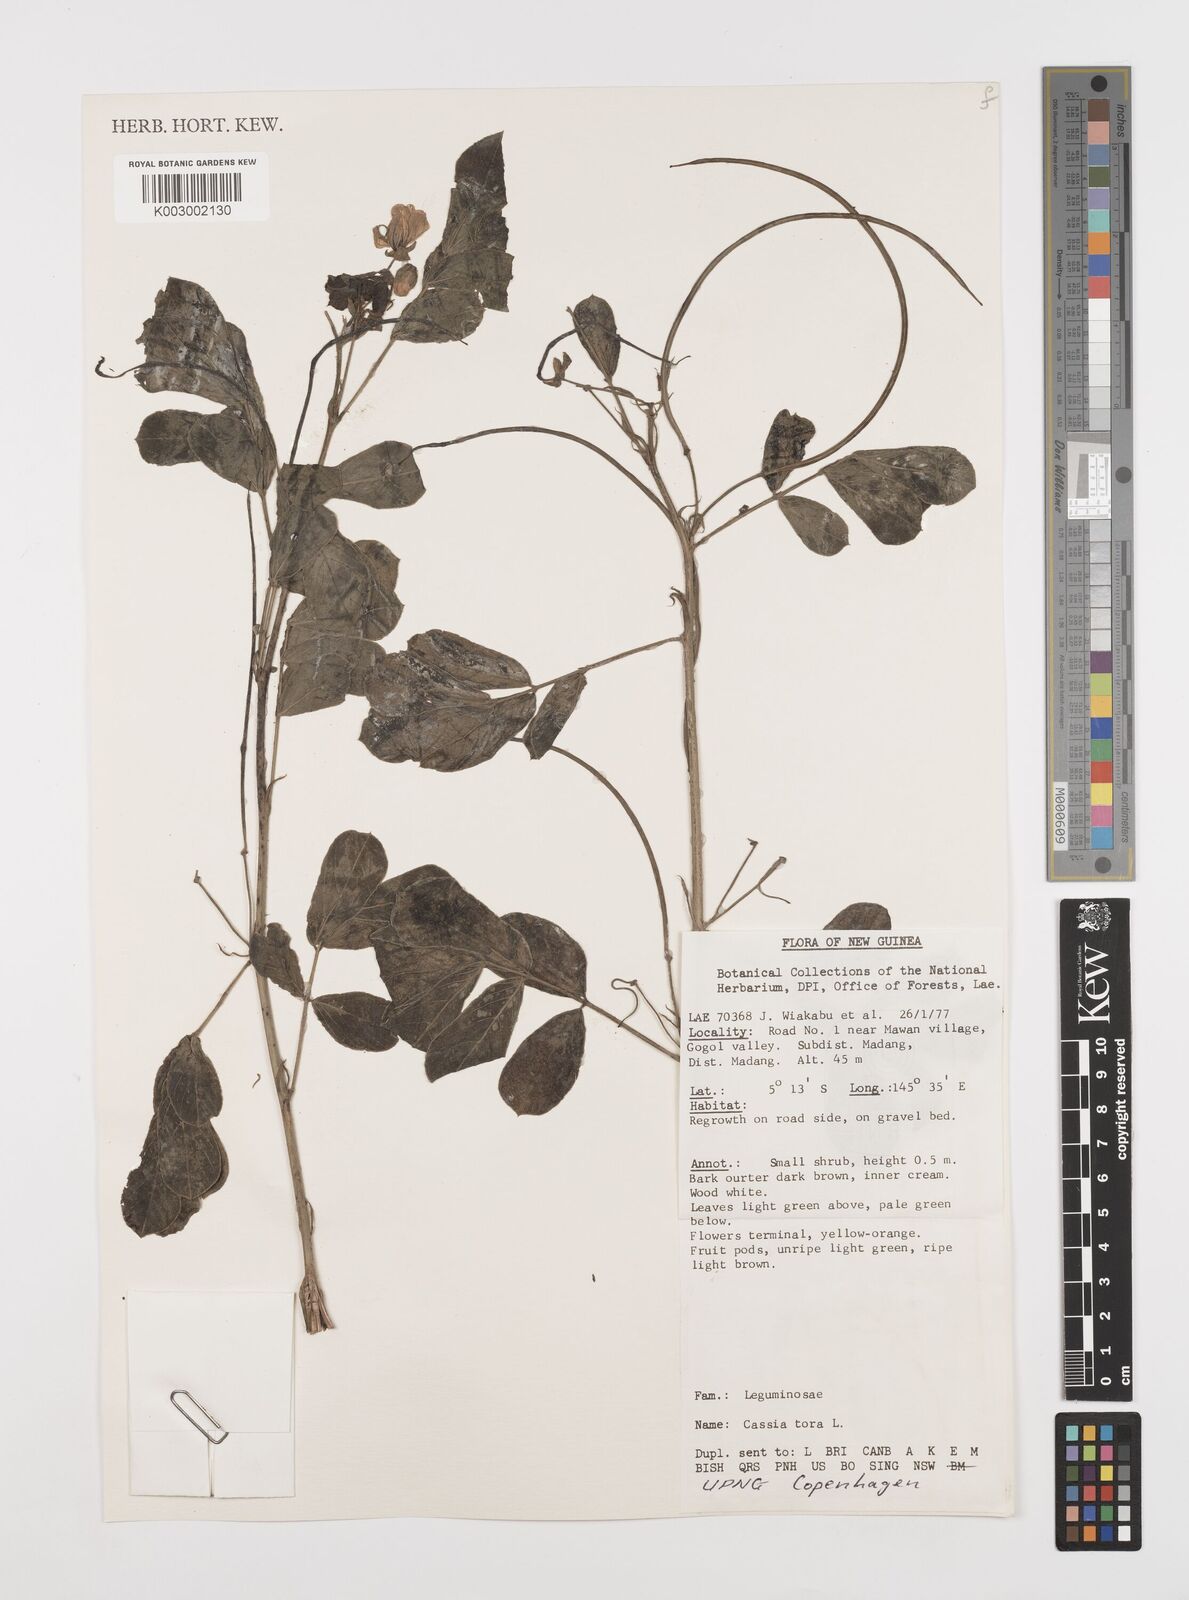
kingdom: Plantae
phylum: Tracheophyta
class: Magnoliopsida
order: Fabales
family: Fabaceae
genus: Senna
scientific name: Senna tora
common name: Sickle senna
